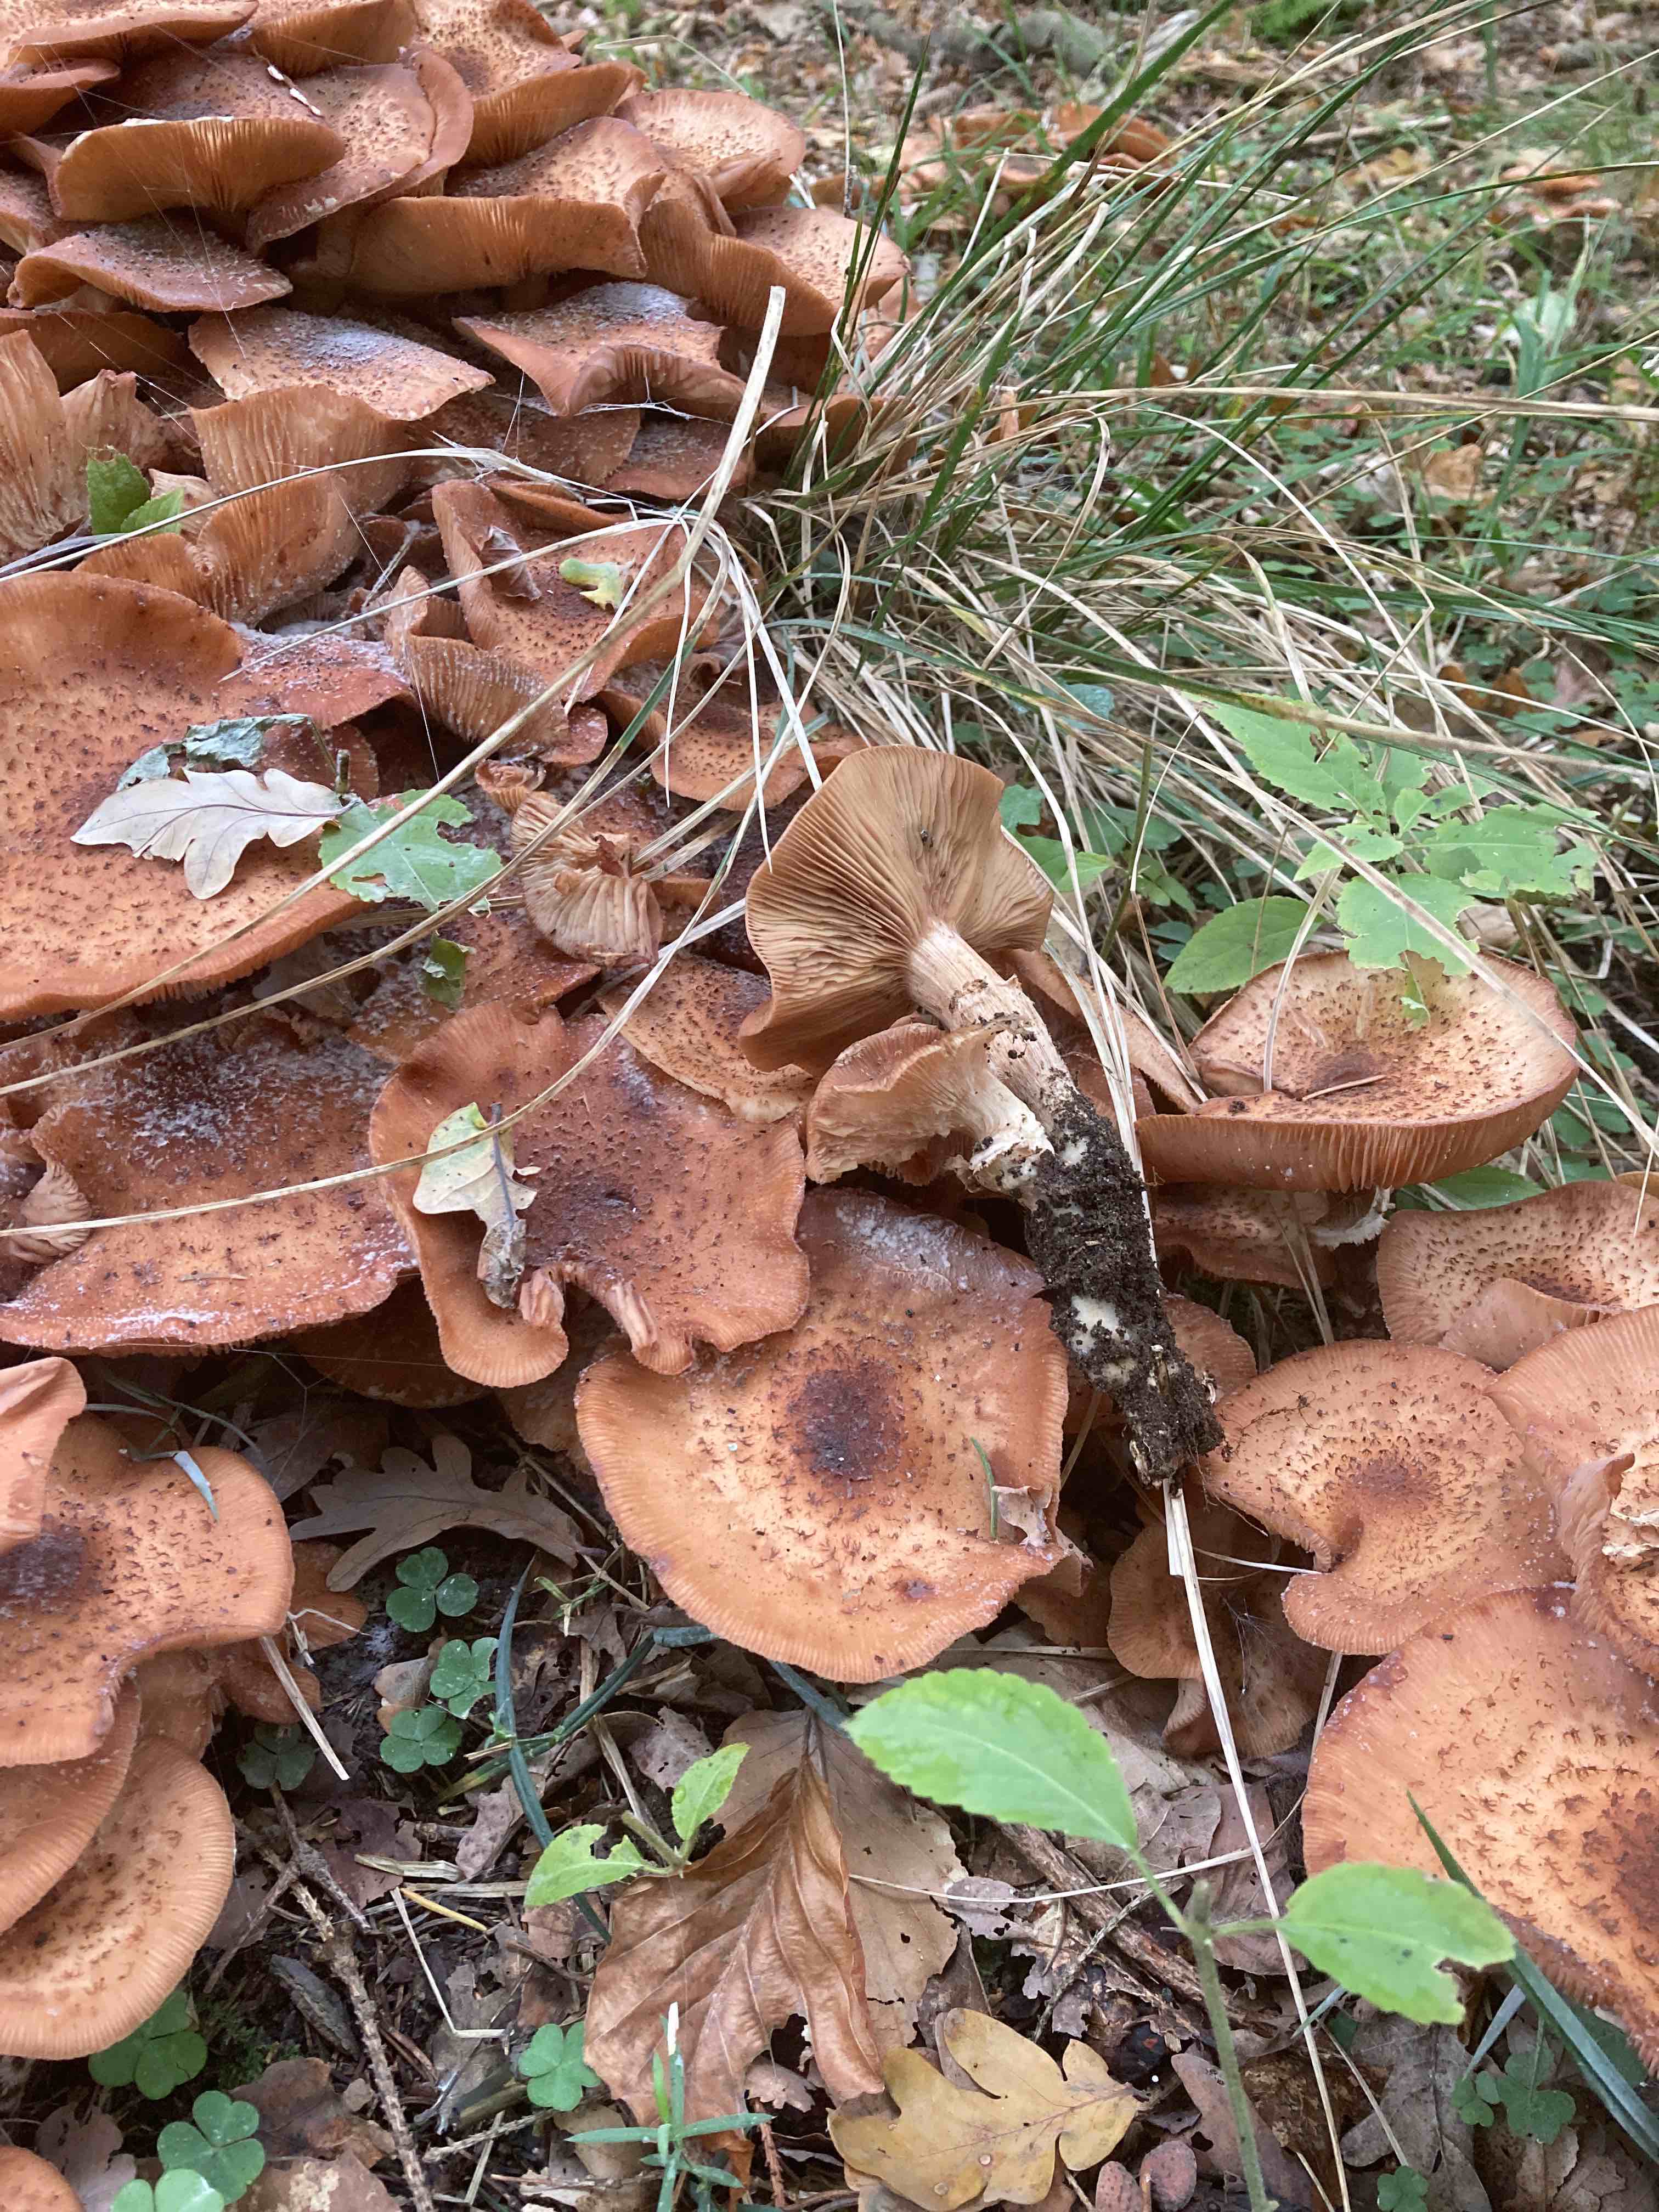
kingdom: Fungi
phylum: Basidiomycota
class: Agaricomycetes
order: Agaricales
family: Physalacriaceae
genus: Armillaria
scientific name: Armillaria ostoyae
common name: mørk honningsvamp
